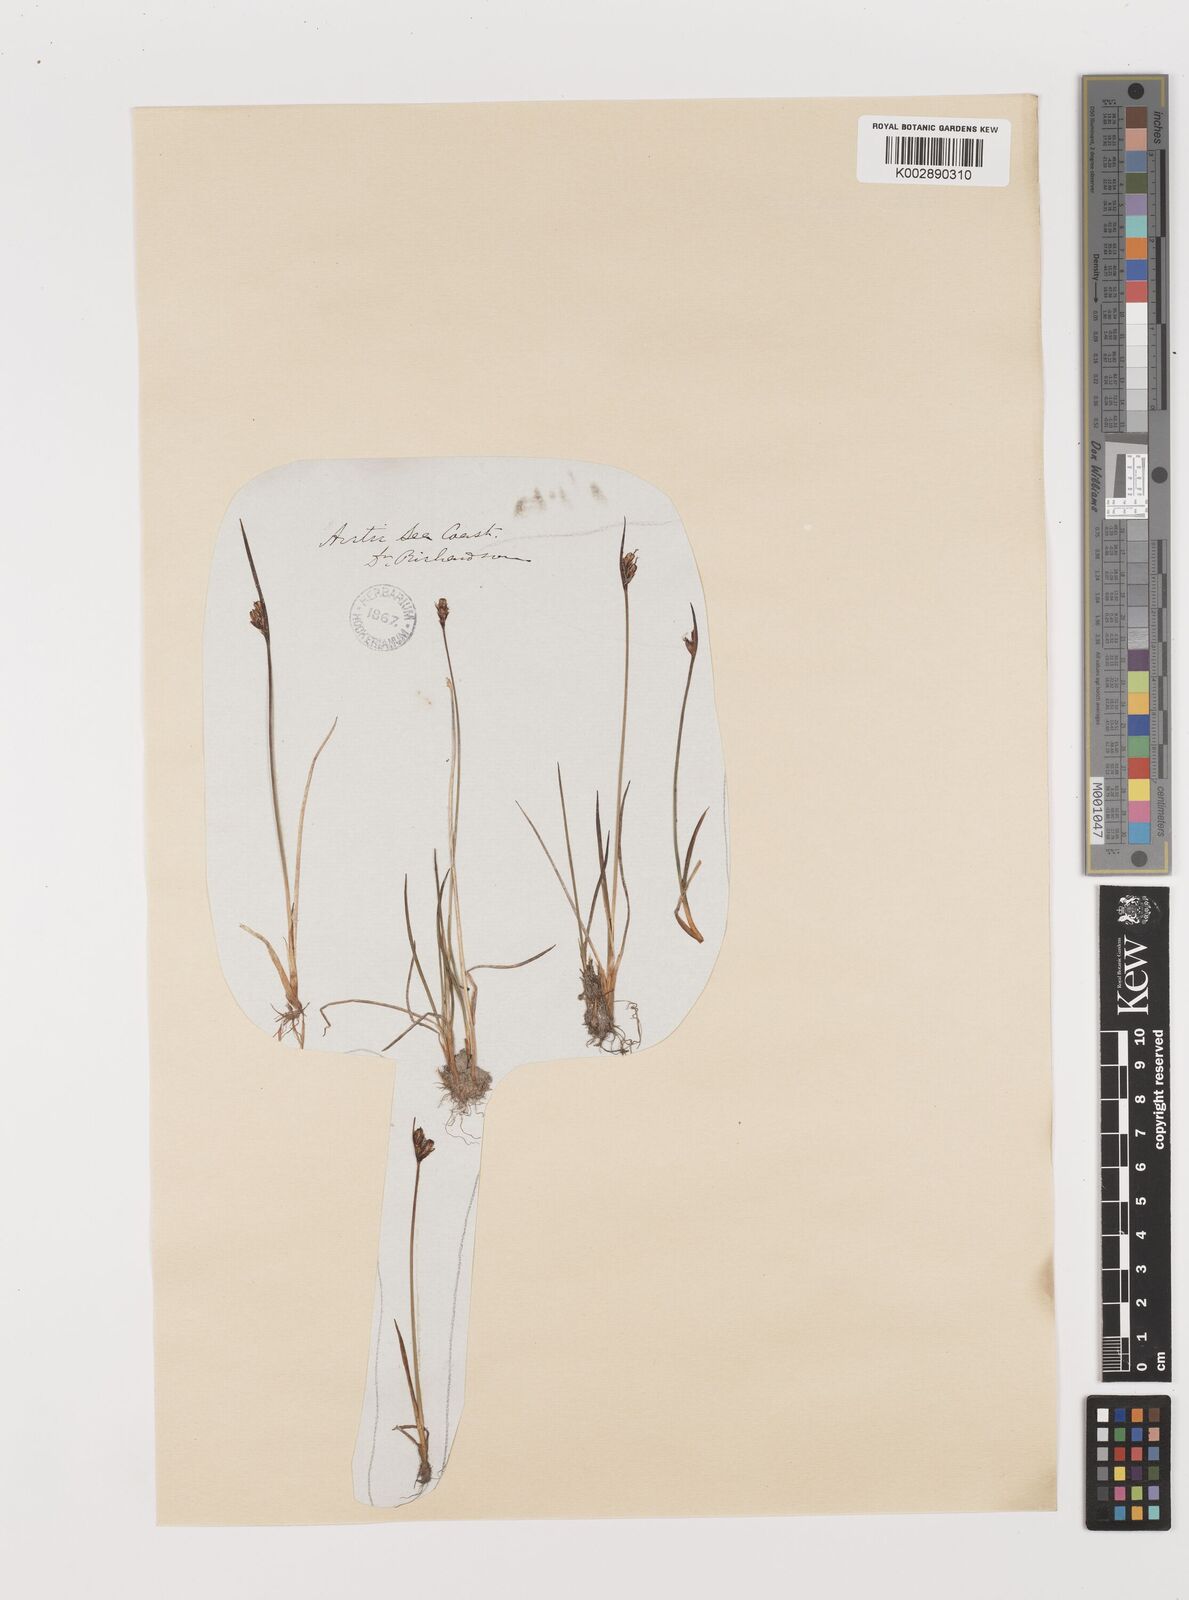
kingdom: Plantae
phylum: Tracheophyta
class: Liliopsida
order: Poales
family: Juncaceae
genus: Juncus
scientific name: Juncus biglumis
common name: Two-flowered rush
